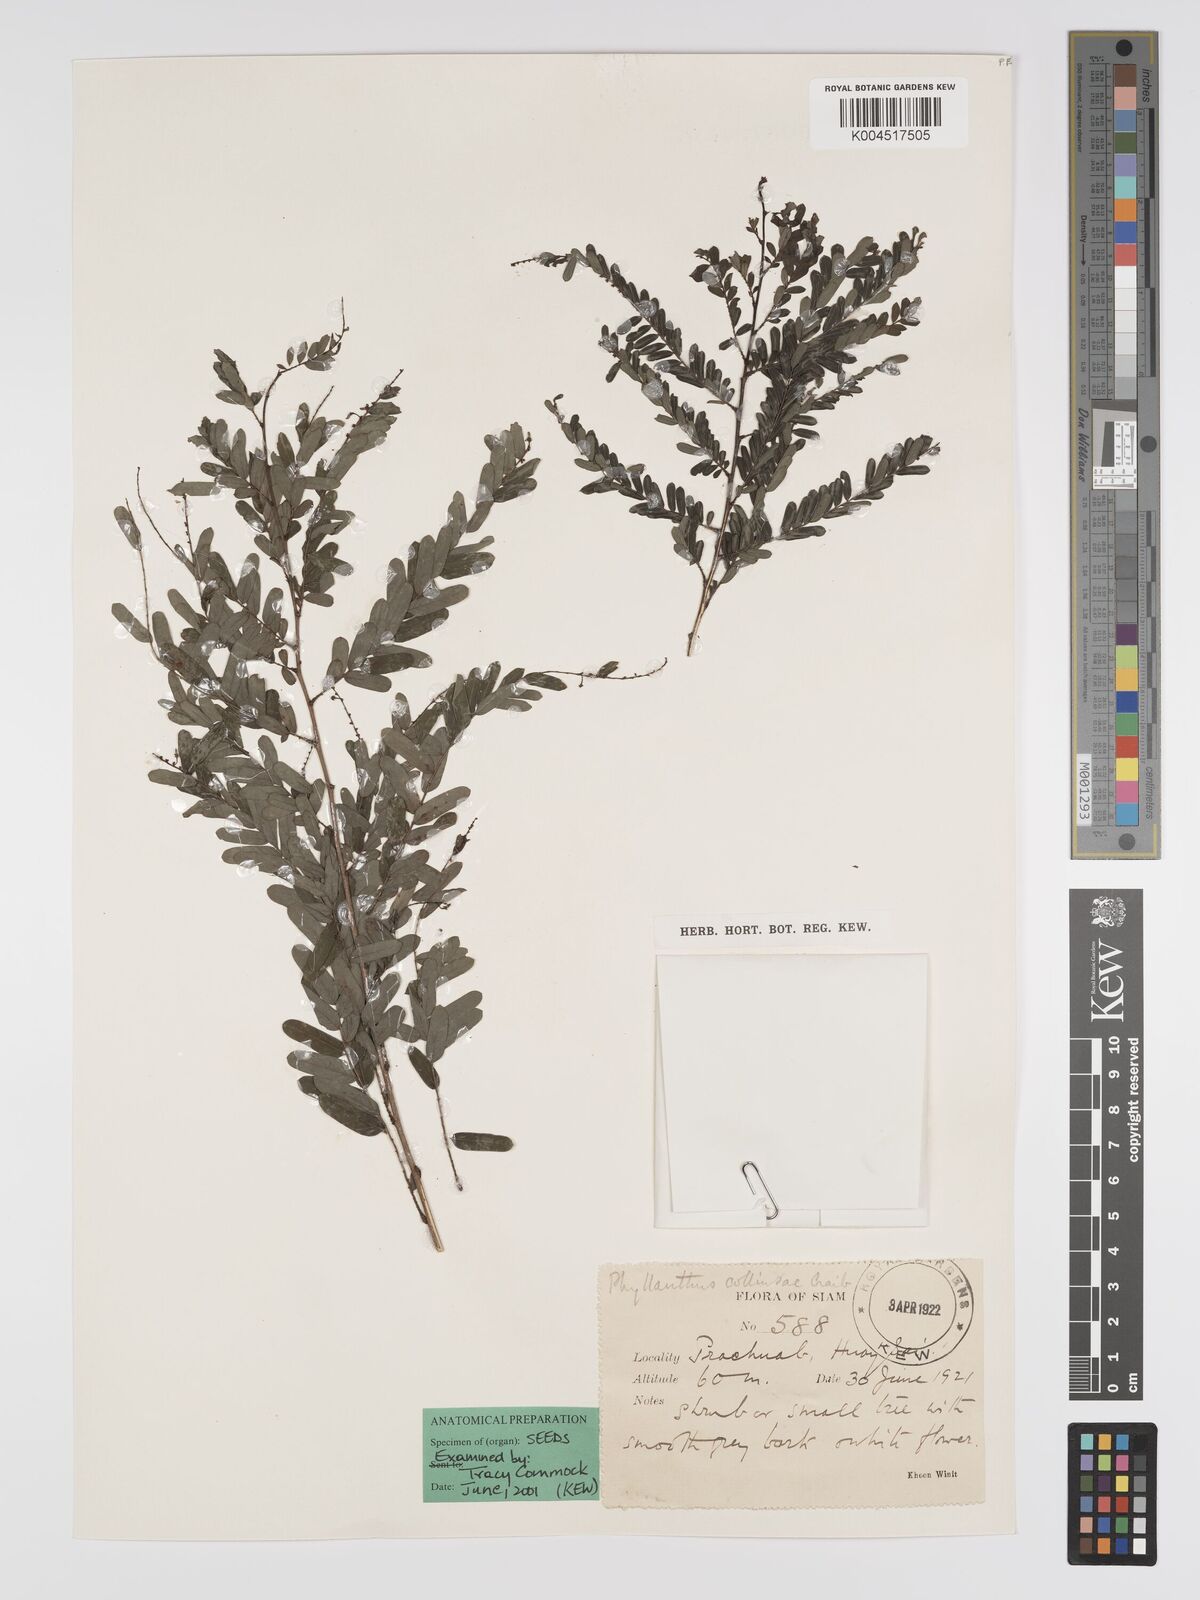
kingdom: Plantae
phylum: Tracheophyta
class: Magnoliopsida
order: Malpighiales
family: Phyllanthaceae
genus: Phyllanthus
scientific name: Phyllanthus collinsiae
